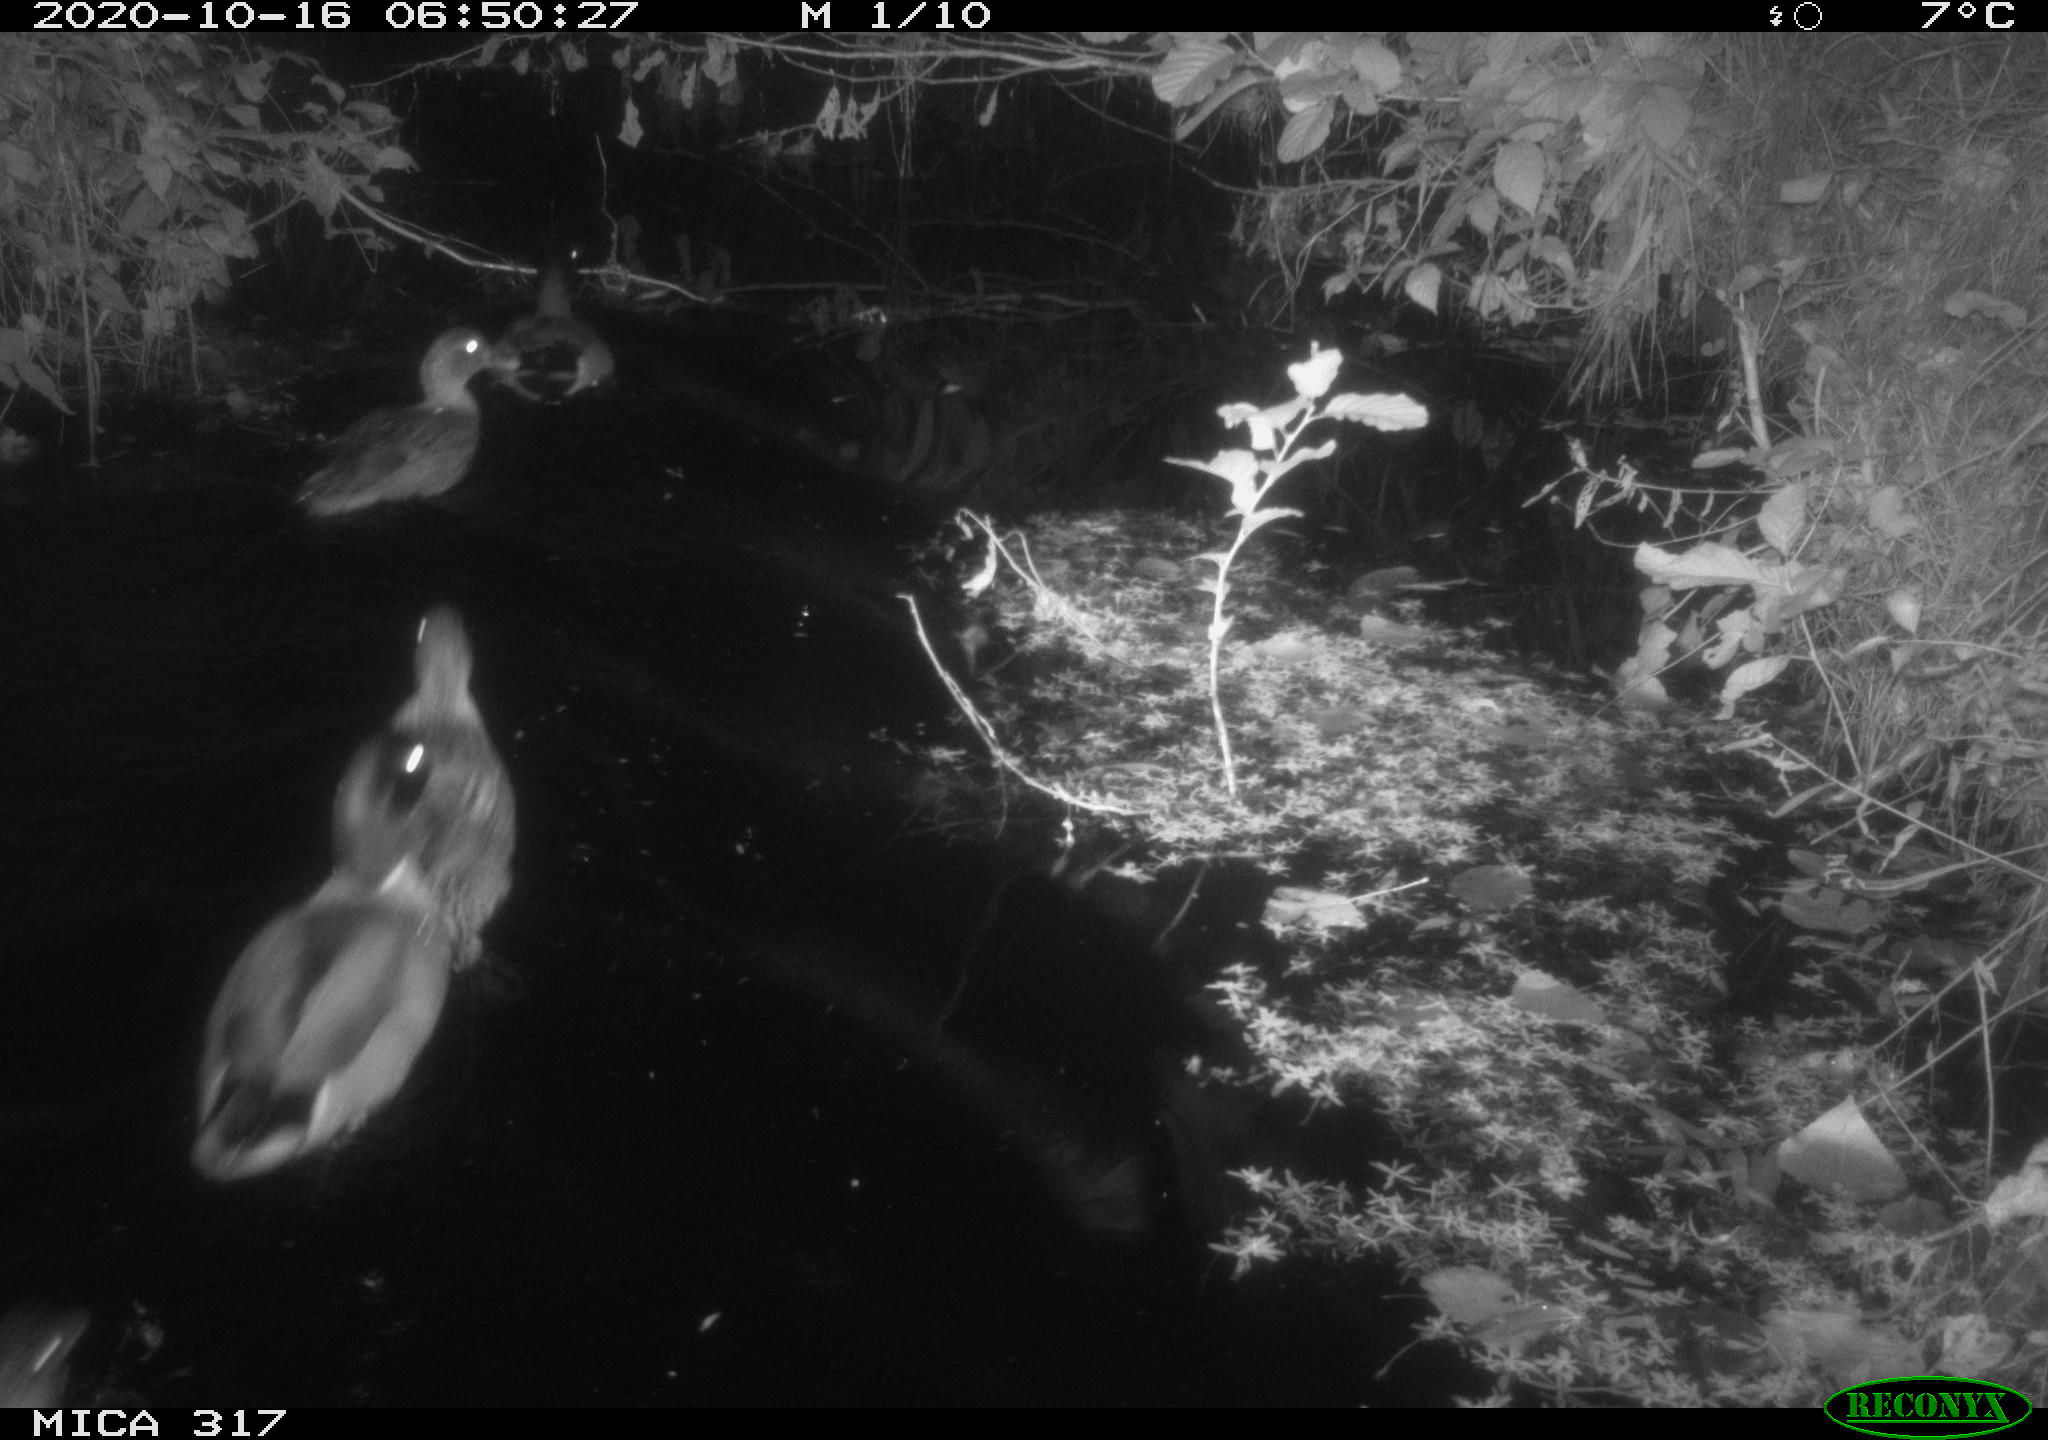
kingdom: Animalia
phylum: Chordata
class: Aves
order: Anseriformes
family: Anatidae
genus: Anas
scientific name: Anas platyrhynchos
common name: Mallard
